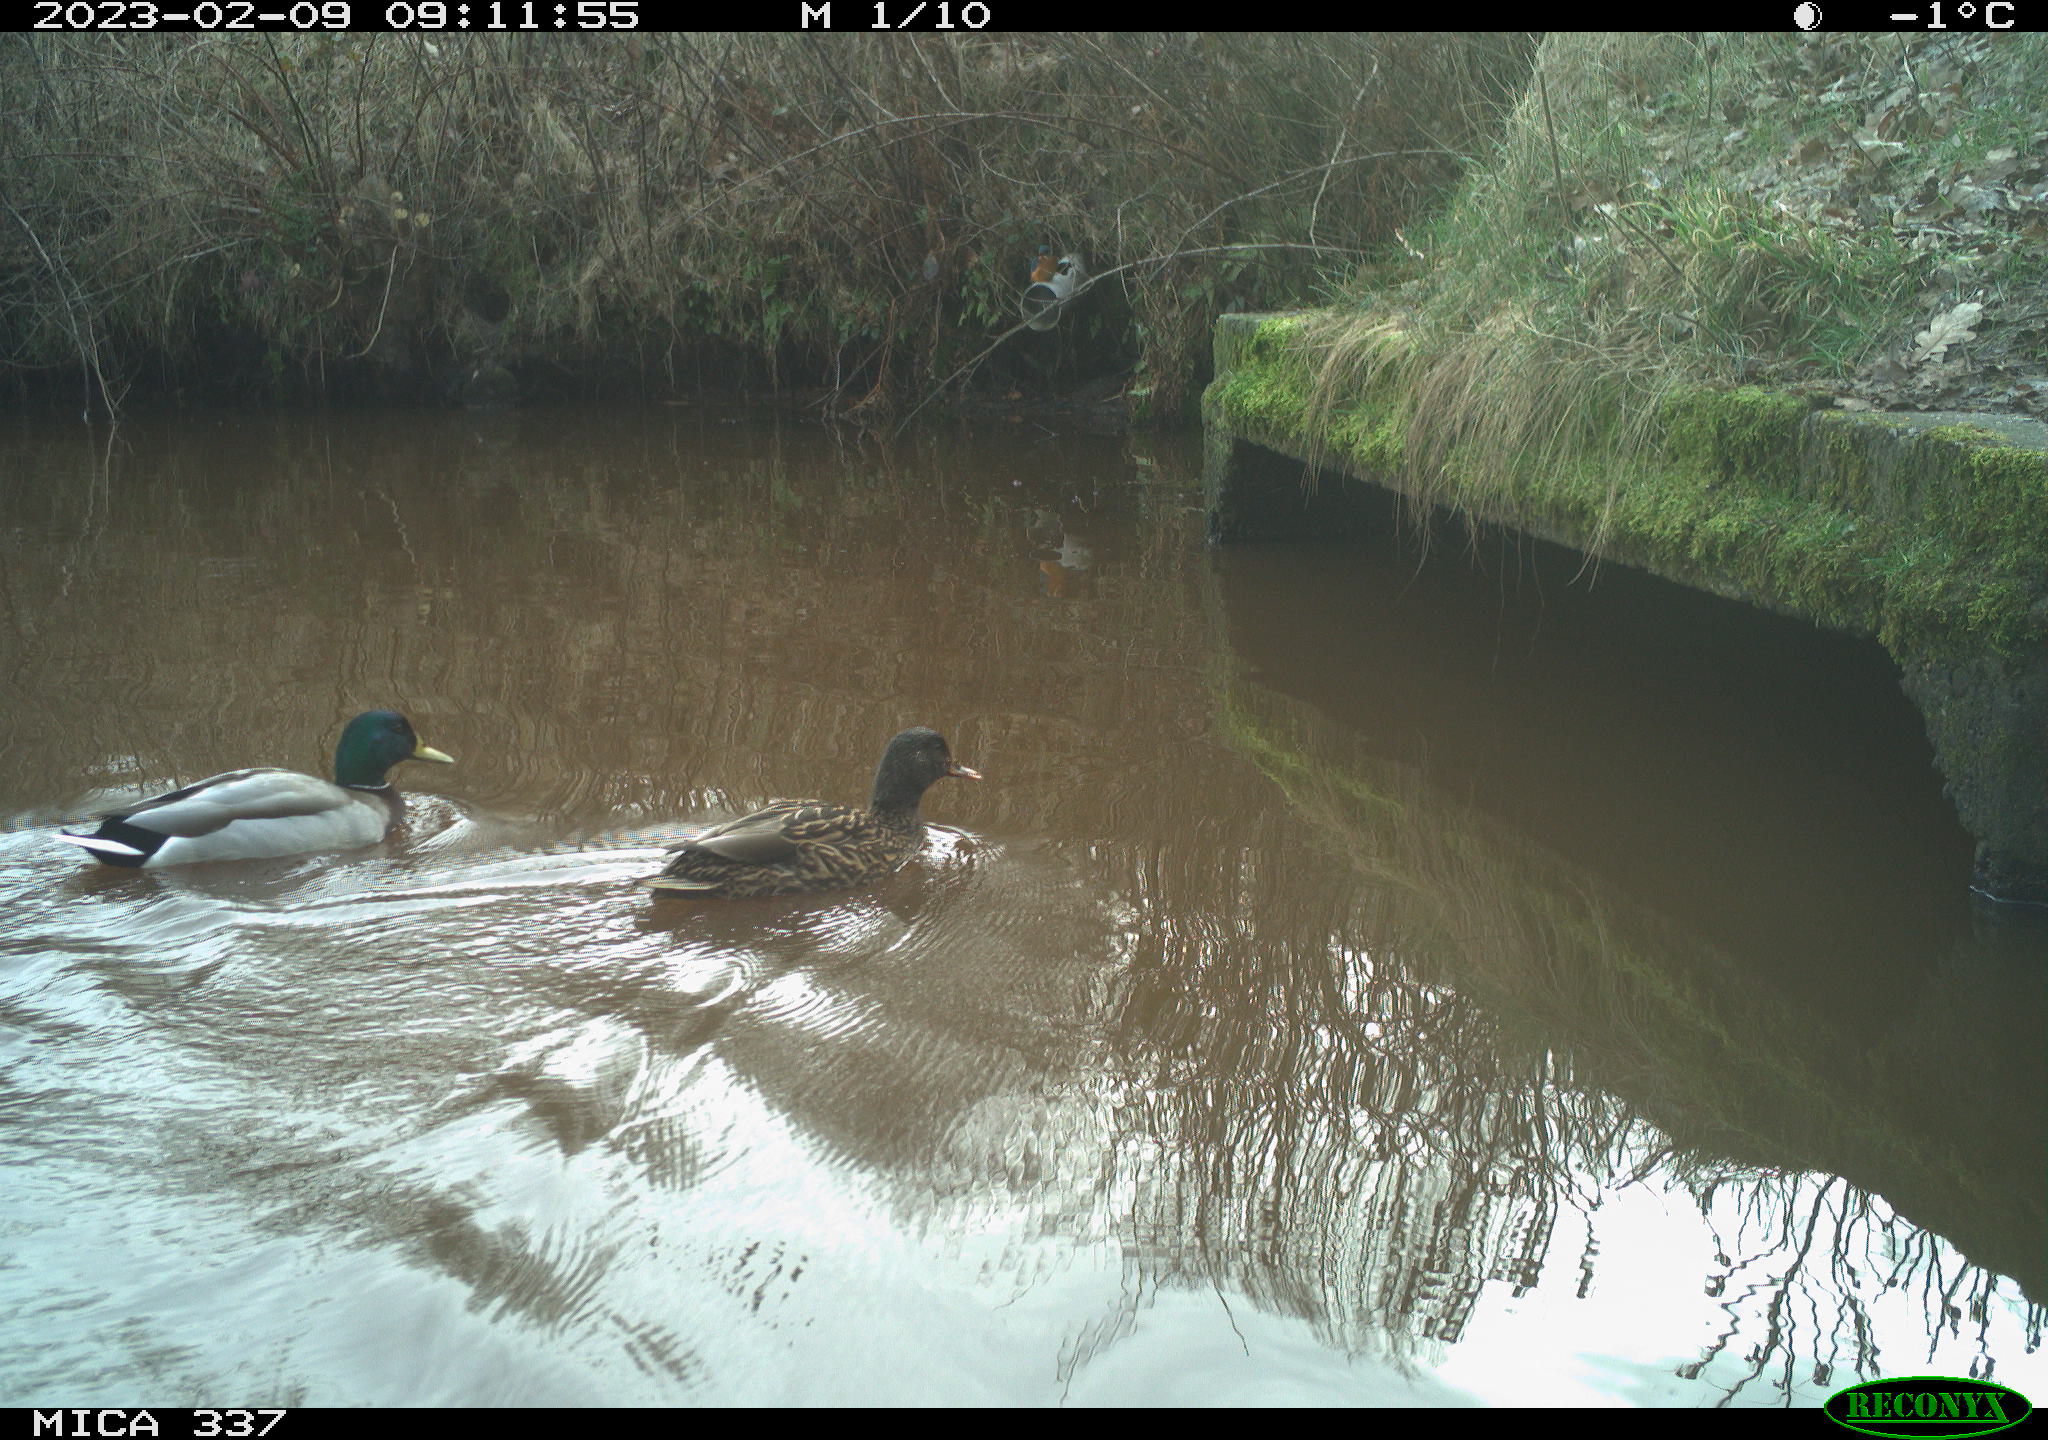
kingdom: Animalia
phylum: Chordata
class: Aves
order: Anseriformes
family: Anatidae
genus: Anas
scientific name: Anas
